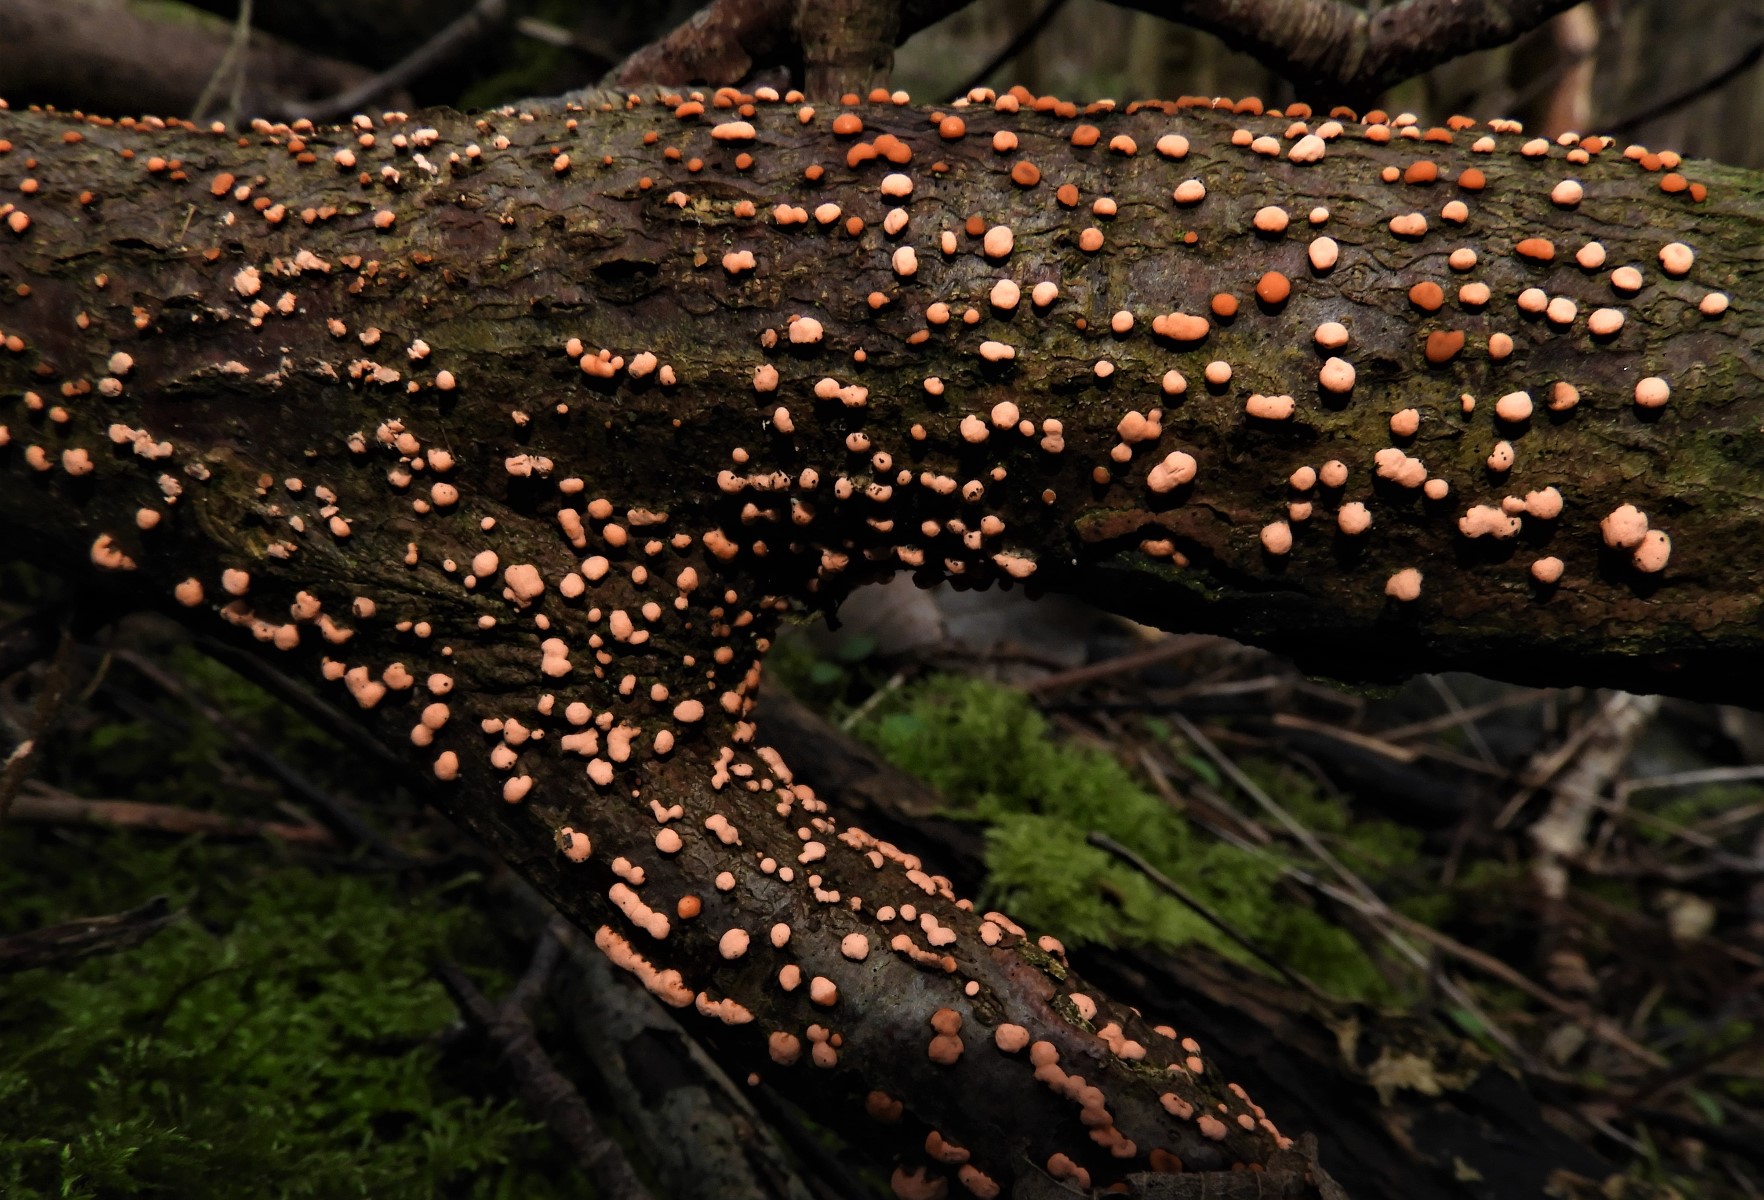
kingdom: Fungi
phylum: Ascomycota
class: Sordariomycetes
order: Hypocreales
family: Nectriaceae
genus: Nectria
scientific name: Nectria cinnabarina
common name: almindelig cinnobersvamp
